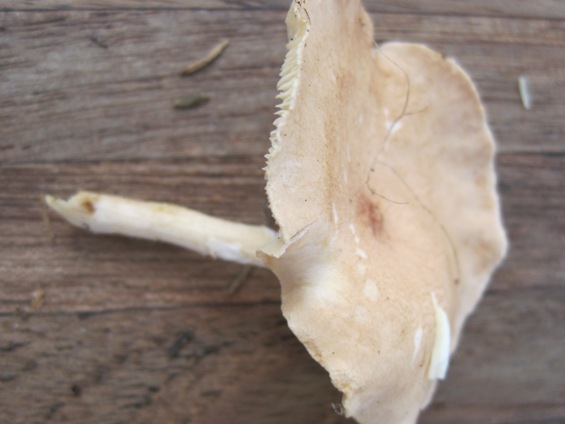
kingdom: Fungi
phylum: Basidiomycota
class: Agaricomycetes
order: Agaricales
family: Tricholomataceae
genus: Infundibulicybe
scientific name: Infundibulicybe gibba
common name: almindelig tragthat
